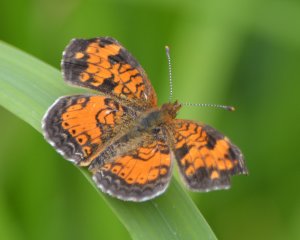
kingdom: Animalia
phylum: Arthropoda
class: Insecta
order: Lepidoptera
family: Nymphalidae
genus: Phyciodes
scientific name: Phyciodes tharos
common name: Northern Crescent
